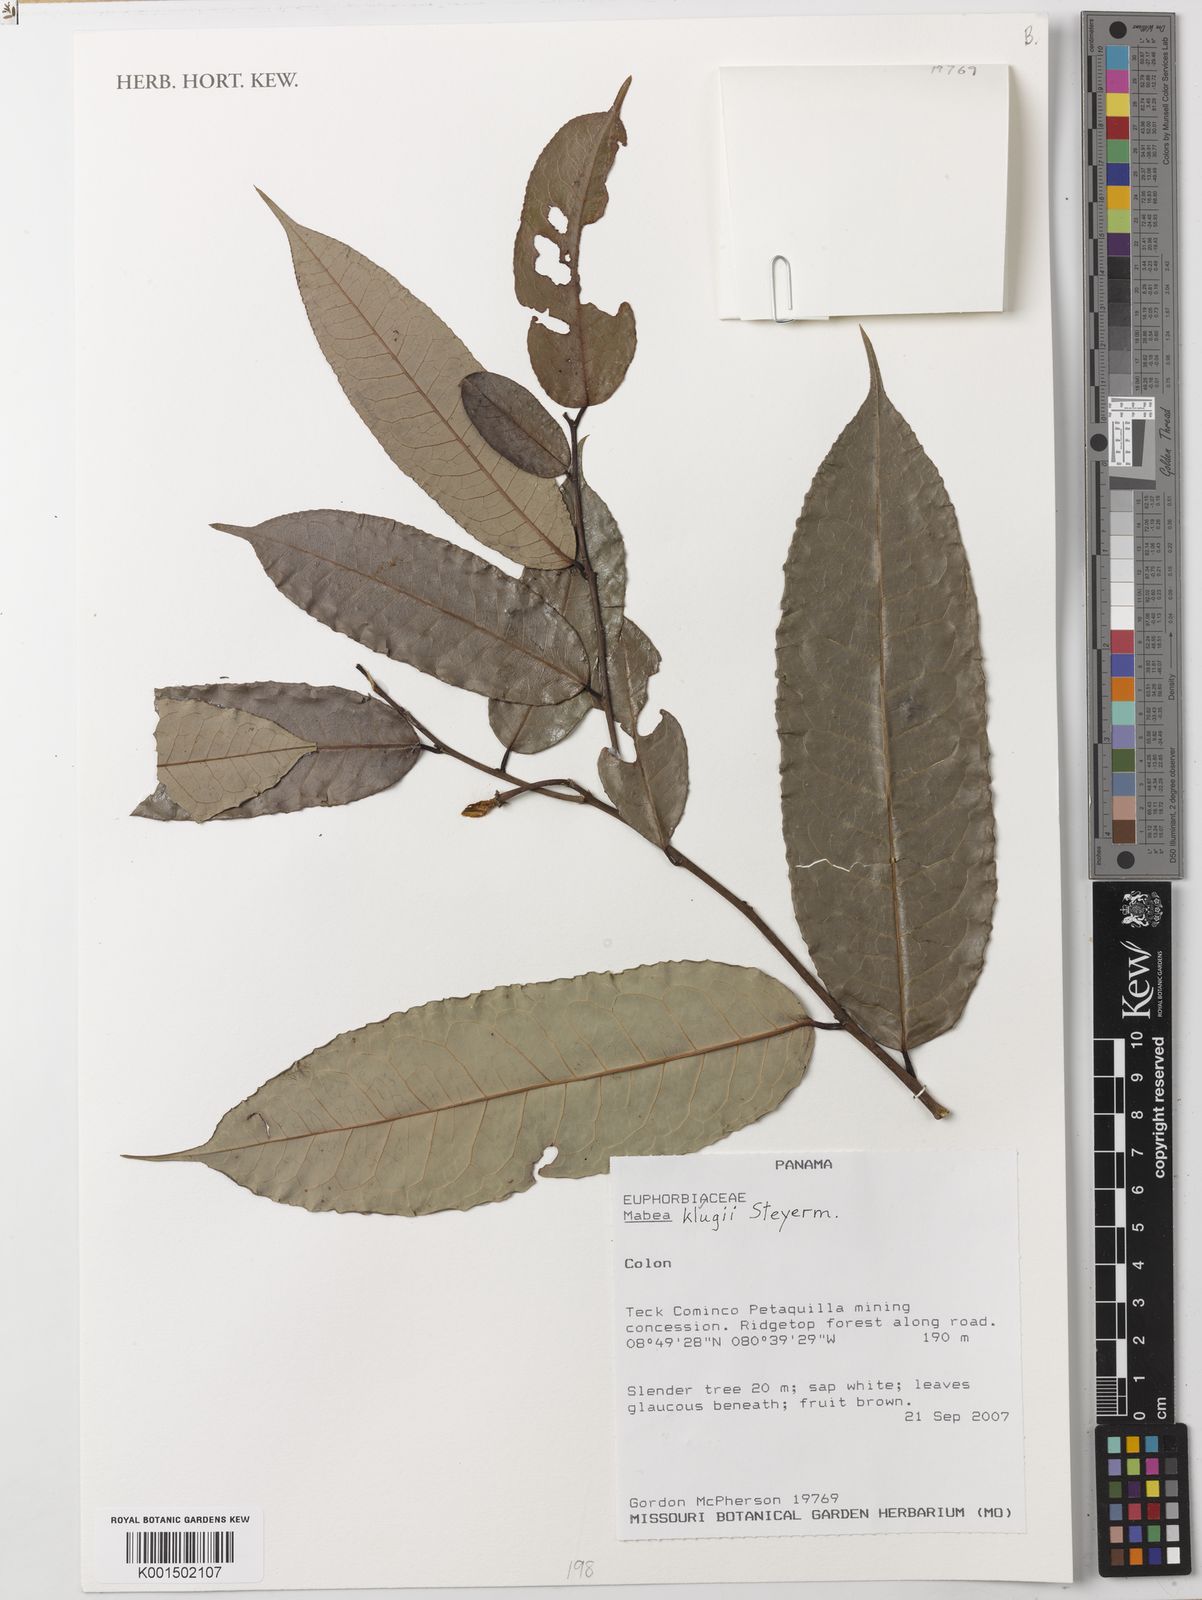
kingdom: Plantae
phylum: Tracheophyta
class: Magnoliopsida
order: Malpighiales
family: Euphorbiaceae
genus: Mabea
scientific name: Mabea klugii
